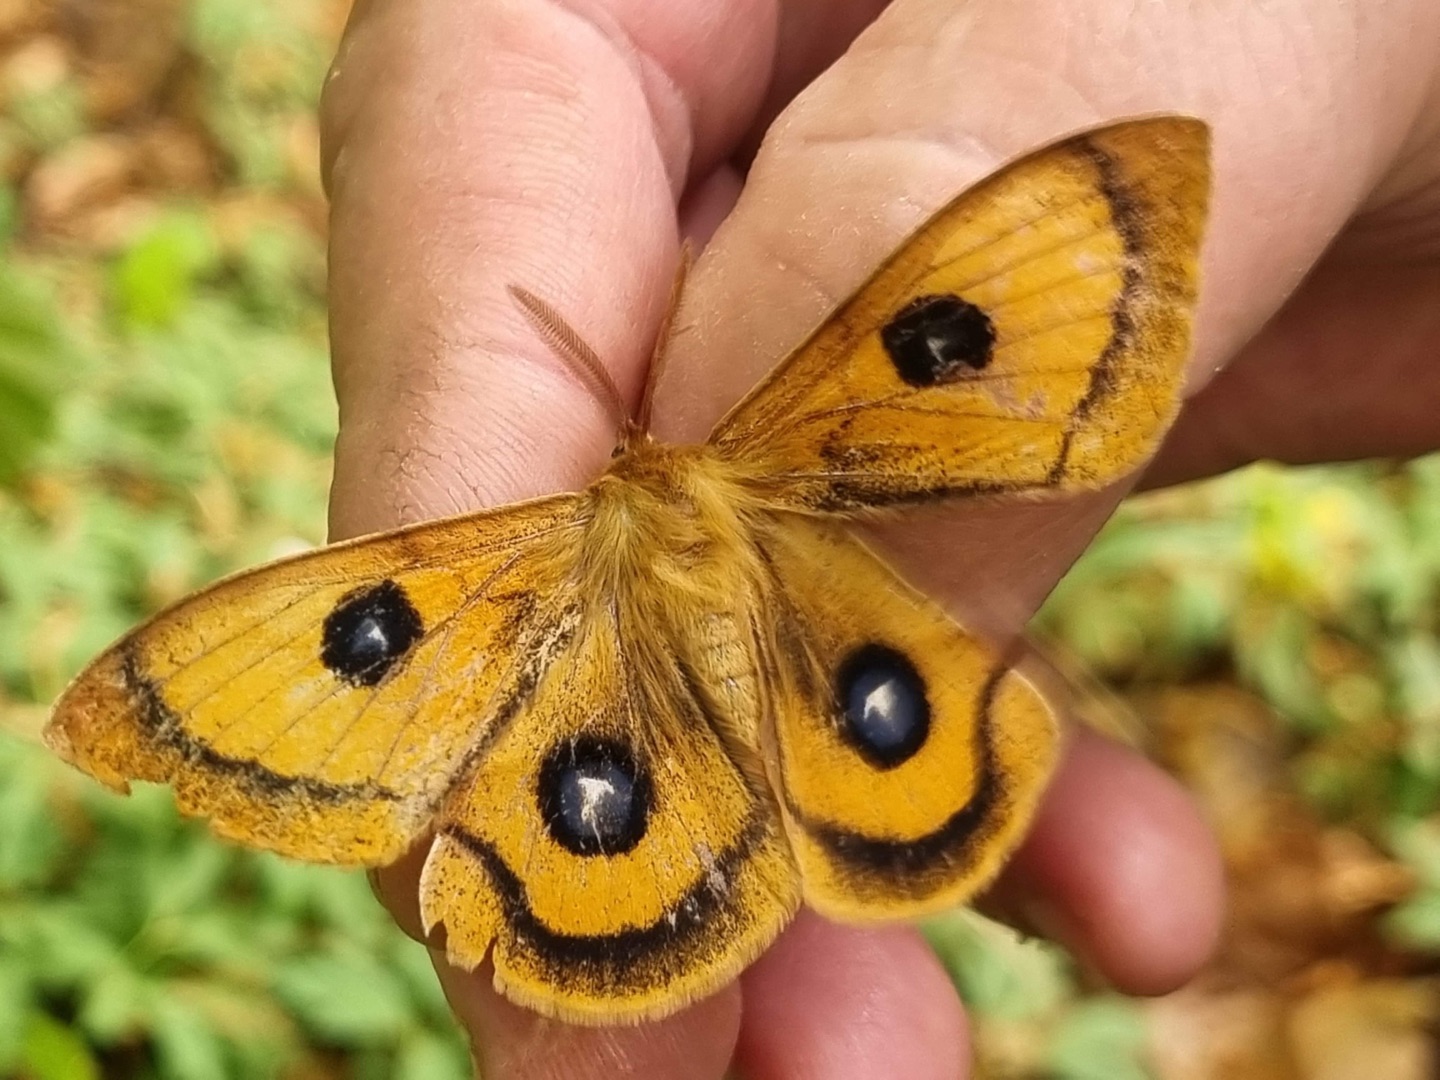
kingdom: Animalia
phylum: Arthropoda
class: Insecta
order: Lepidoptera
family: Saturniidae
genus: Aglia
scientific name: Aglia tau
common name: Sømplet
